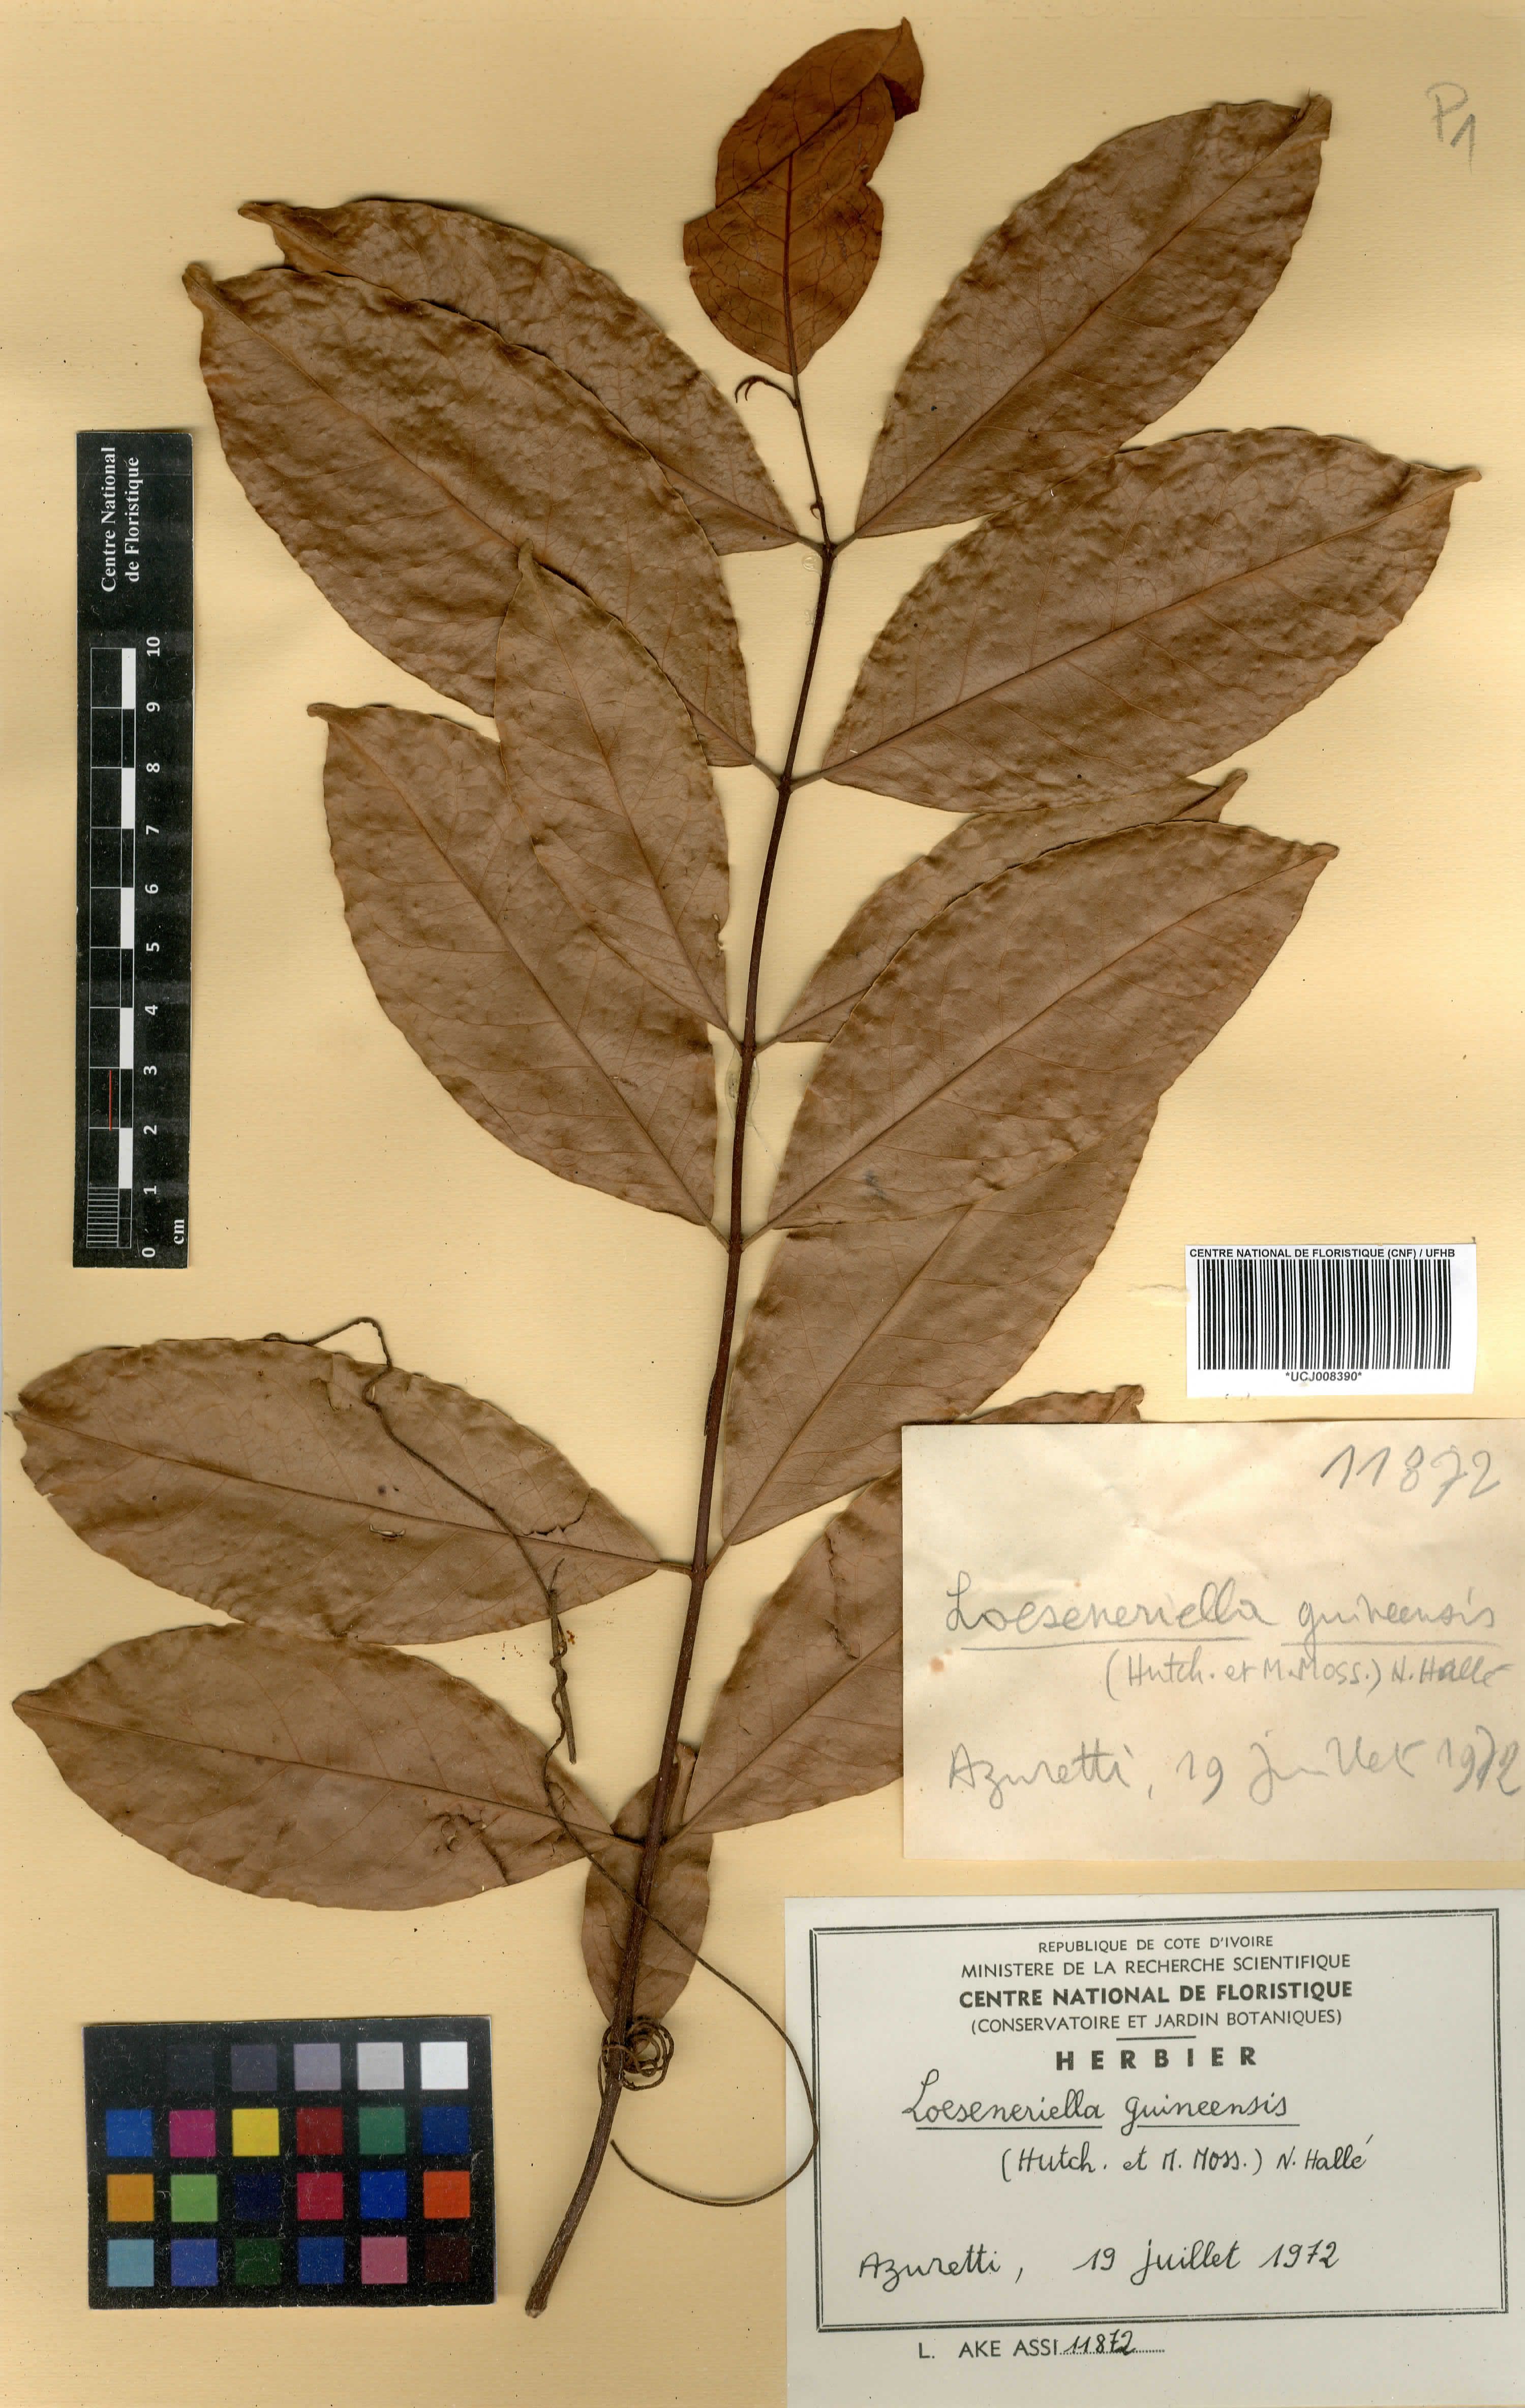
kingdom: Plantae
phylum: Tracheophyta
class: Magnoliopsida
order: Celastrales
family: Celastraceae
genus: Loeseneriella
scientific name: Loeseneriella apocynoides
